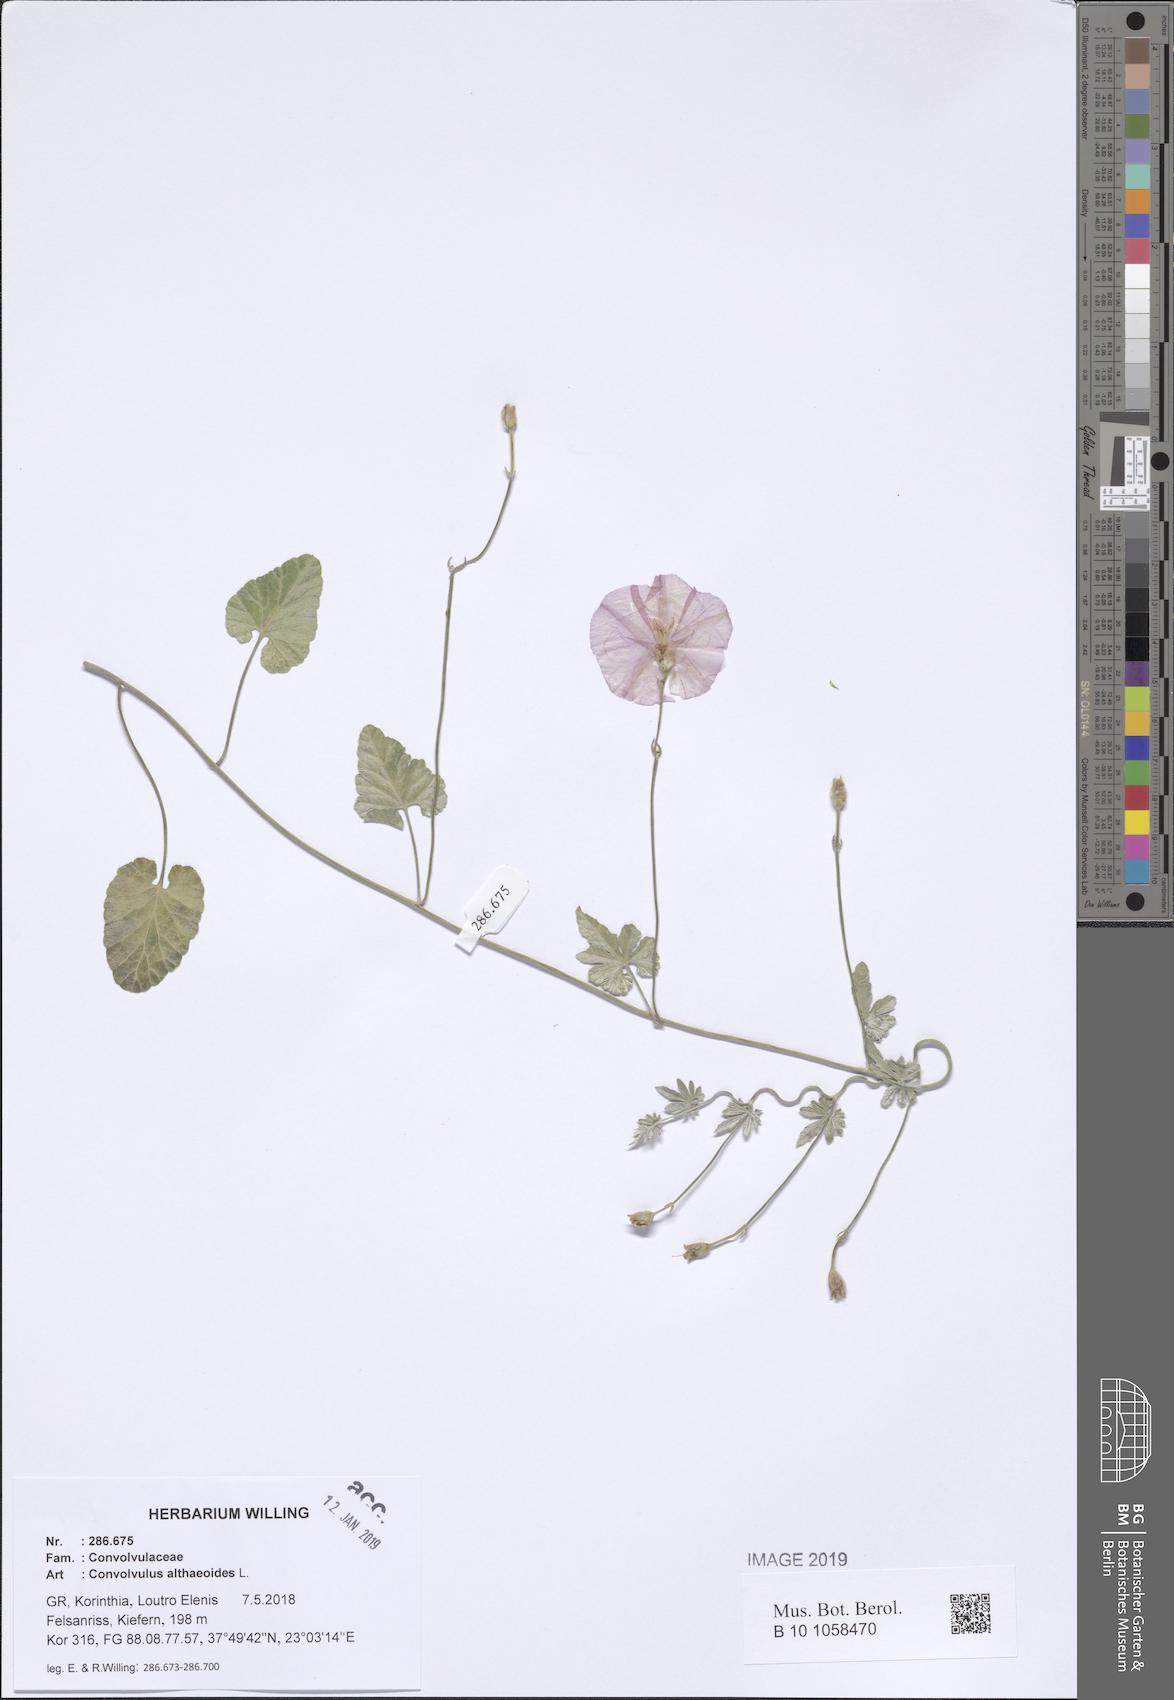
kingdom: Plantae
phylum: Tracheophyta
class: Magnoliopsida
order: Solanales
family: Convolvulaceae
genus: Convolvulus
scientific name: Convolvulus althaeoides
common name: Mallow bindweed
